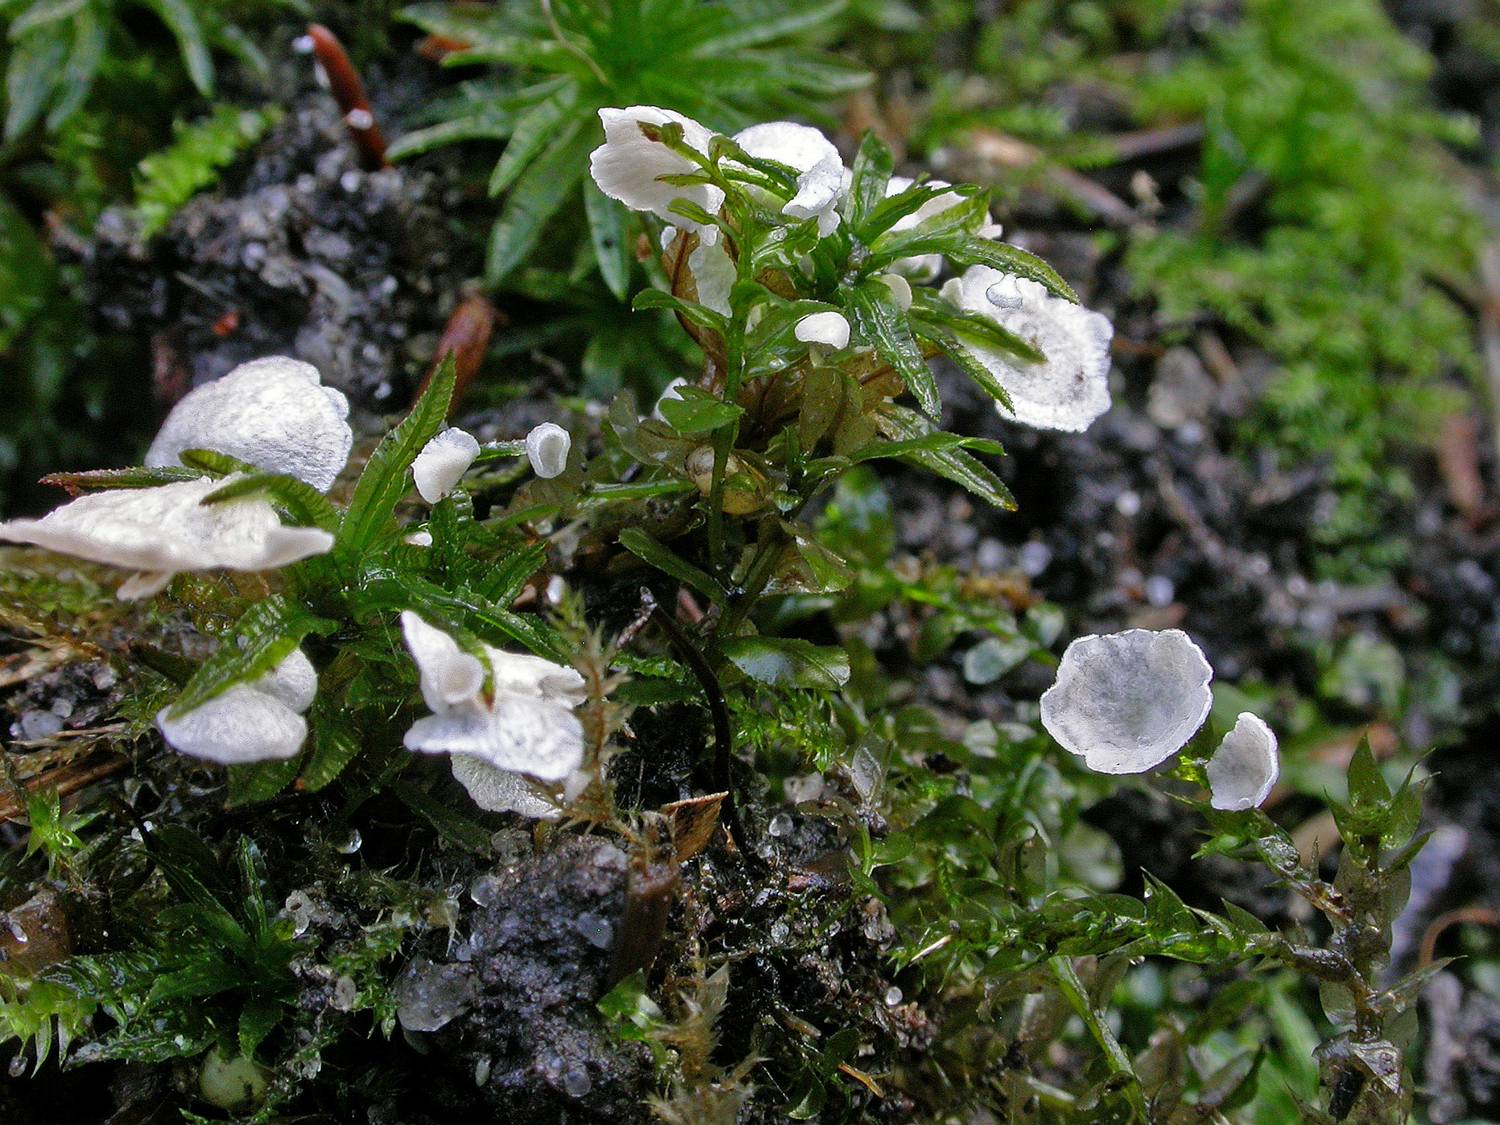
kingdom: Fungi
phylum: Basidiomycota
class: Agaricomycetes
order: Agaricales
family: Hygrophoraceae
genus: Arrhenia
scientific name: Arrhenia retiruga
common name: lille fontænehat
